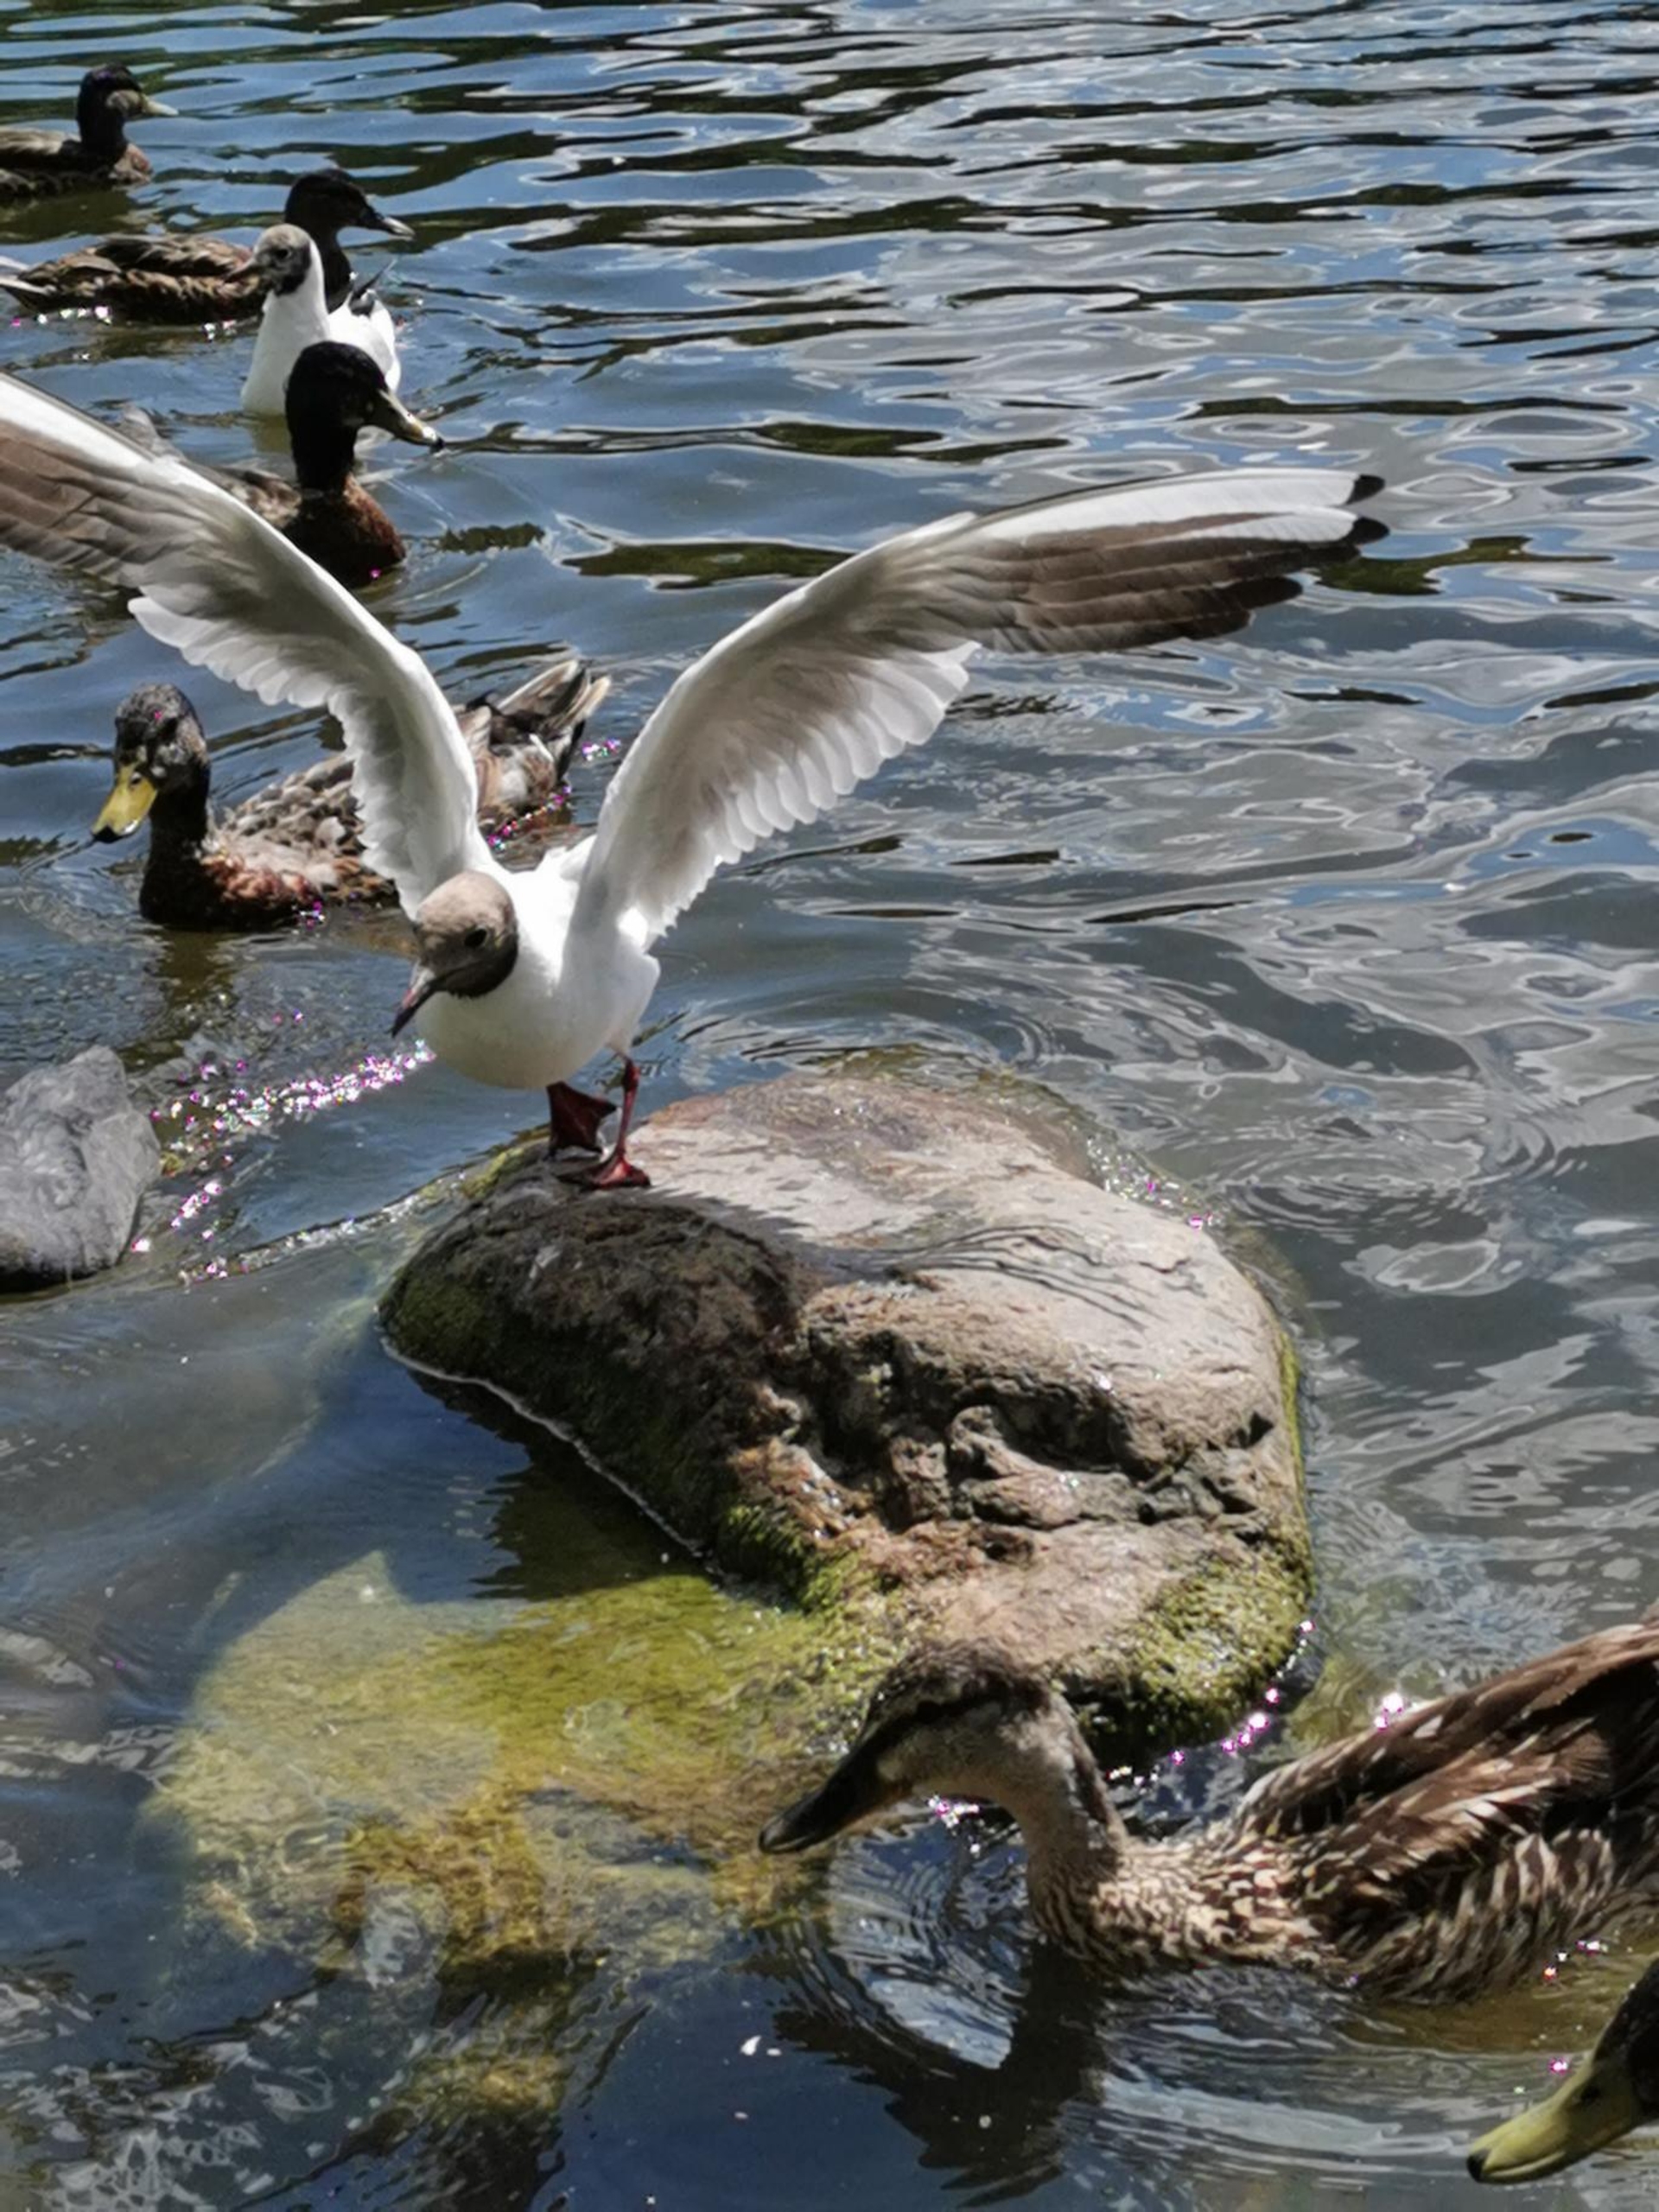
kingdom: Animalia
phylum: Chordata
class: Aves
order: Gruiformes
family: Rallidae
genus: Fulica
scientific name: Fulica atra
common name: Blishøne
